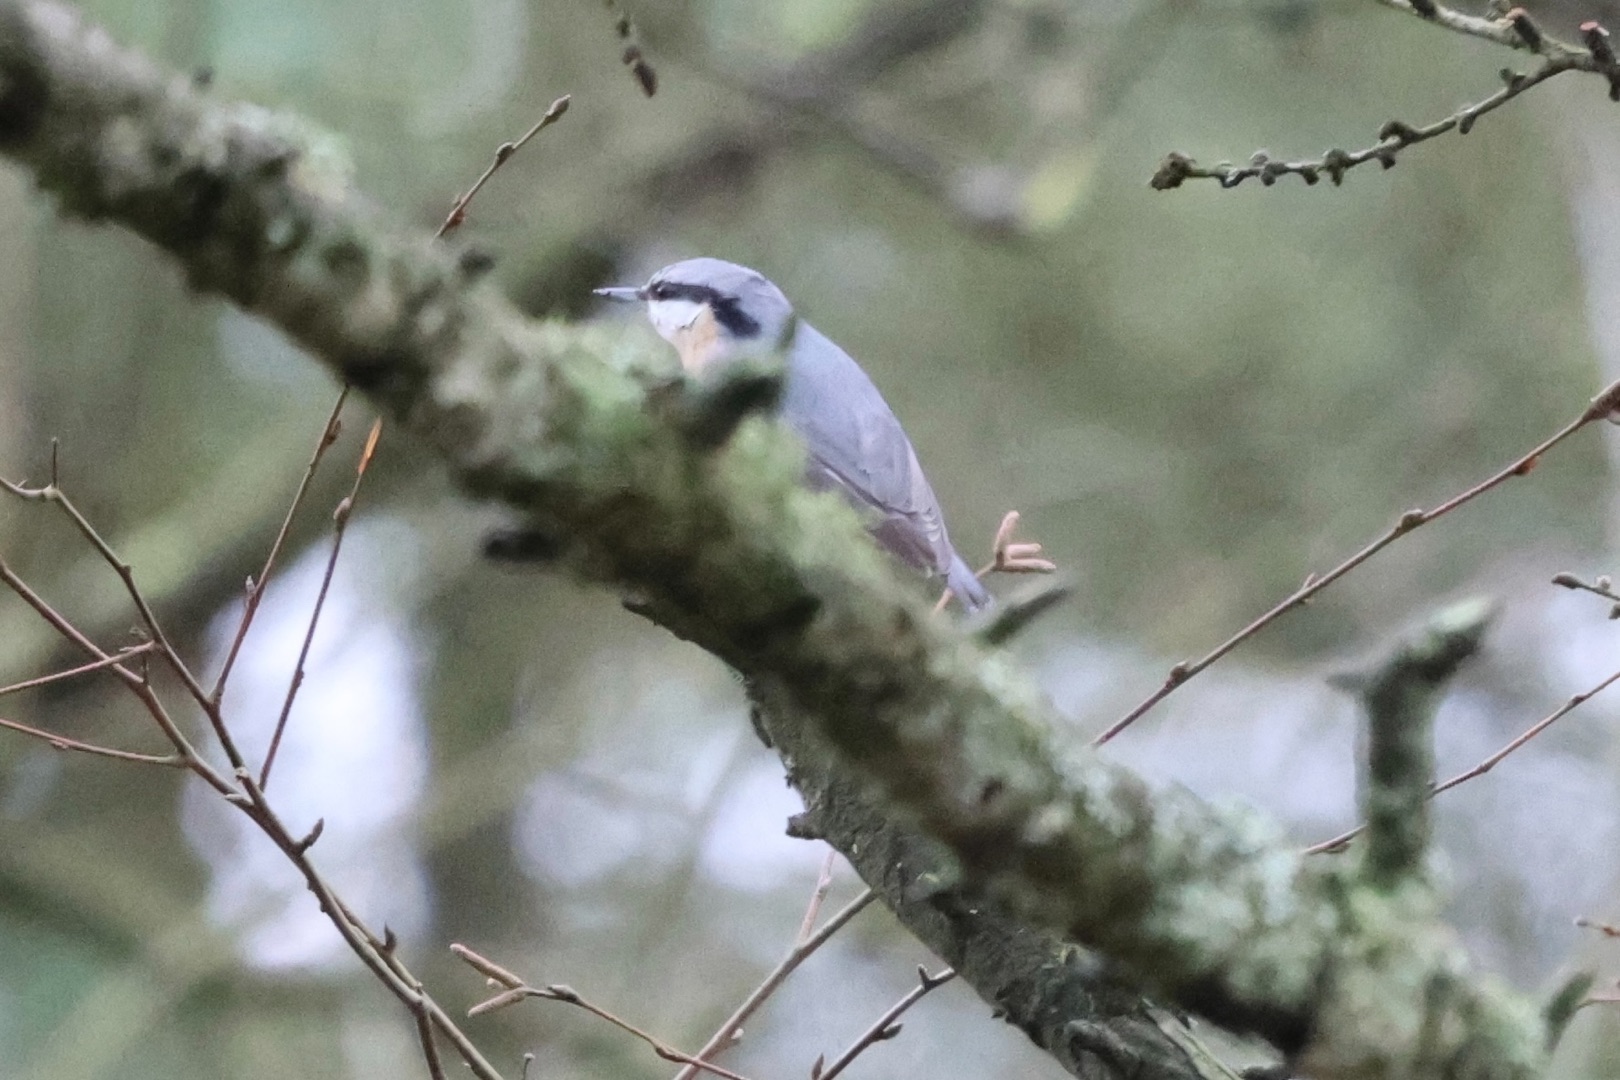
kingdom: Animalia
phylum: Chordata
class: Aves
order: Passeriformes
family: Sittidae
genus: Sitta
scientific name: Sitta europaea
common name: Spætmejse
